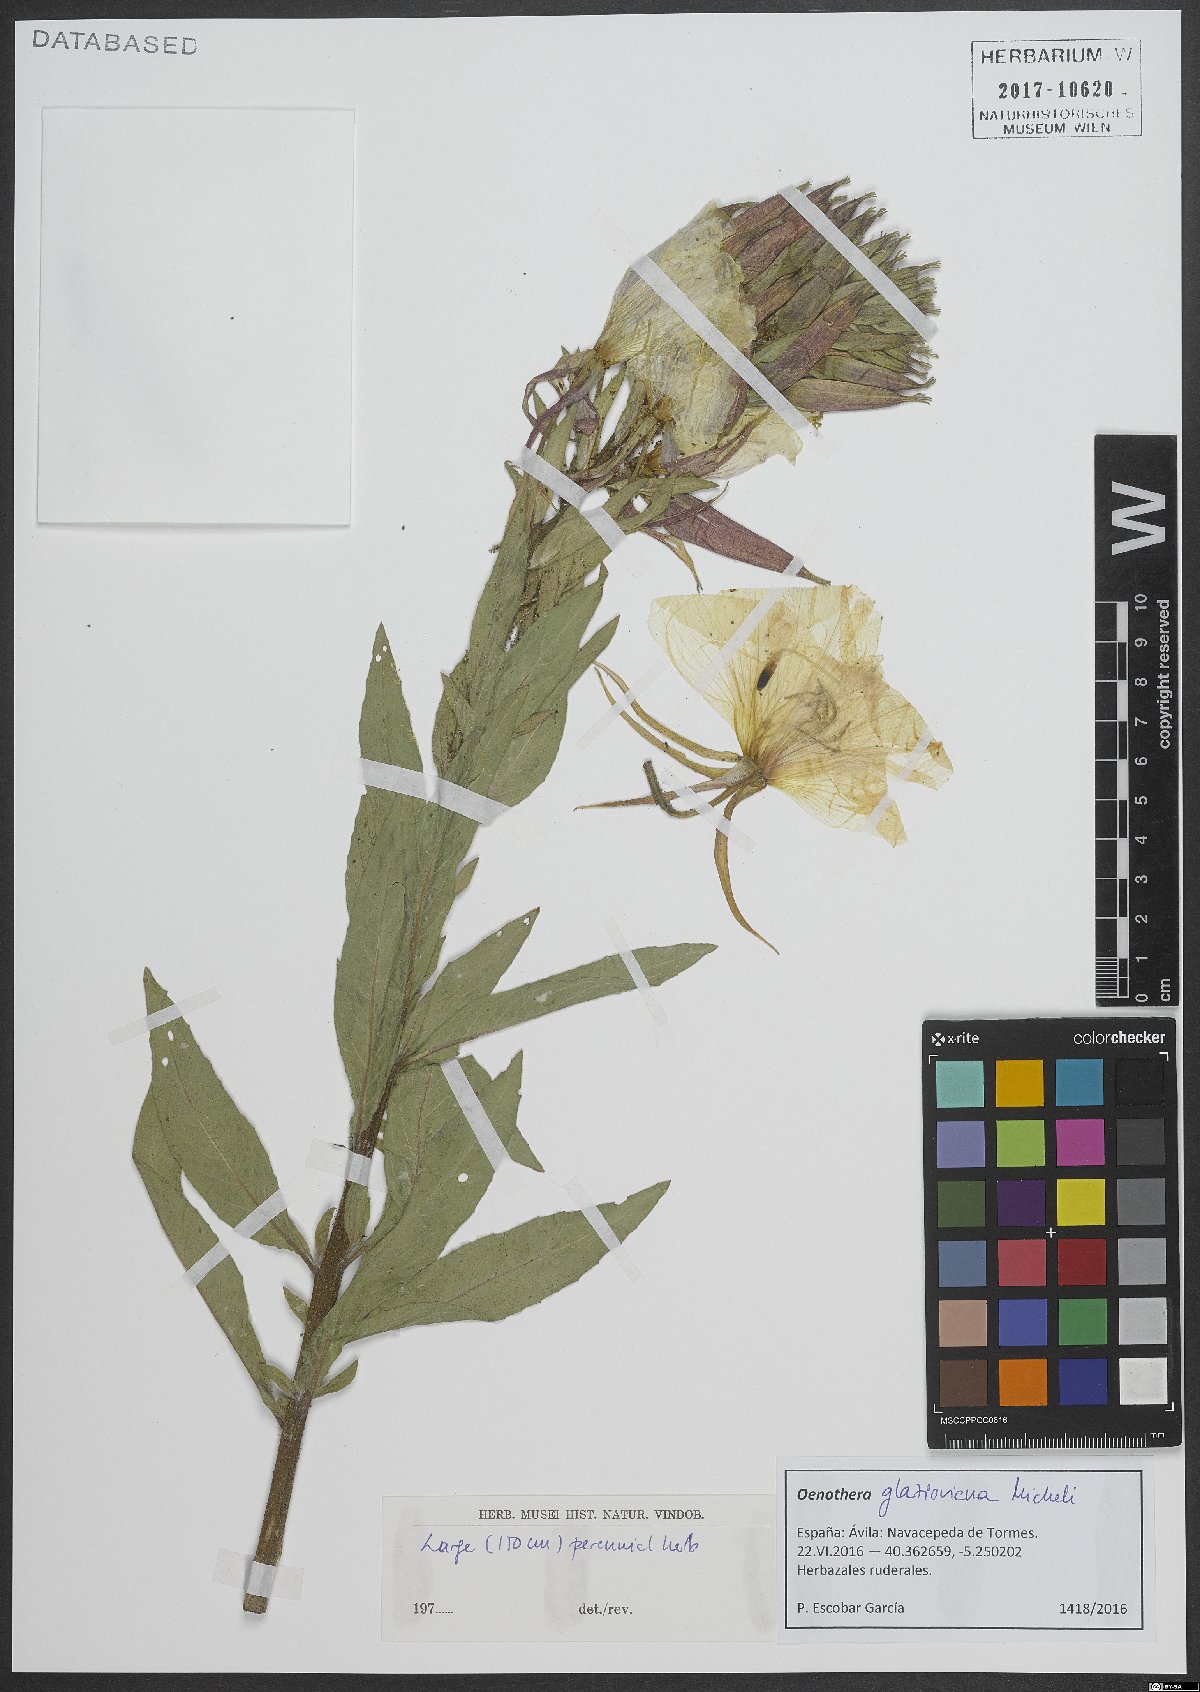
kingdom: Plantae
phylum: Tracheophyta
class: Magnoliopsida
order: Myrtales
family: Onagraceae
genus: Oenothera
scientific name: Oenothera glazioviana
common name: Large-flowered evening-primrose
